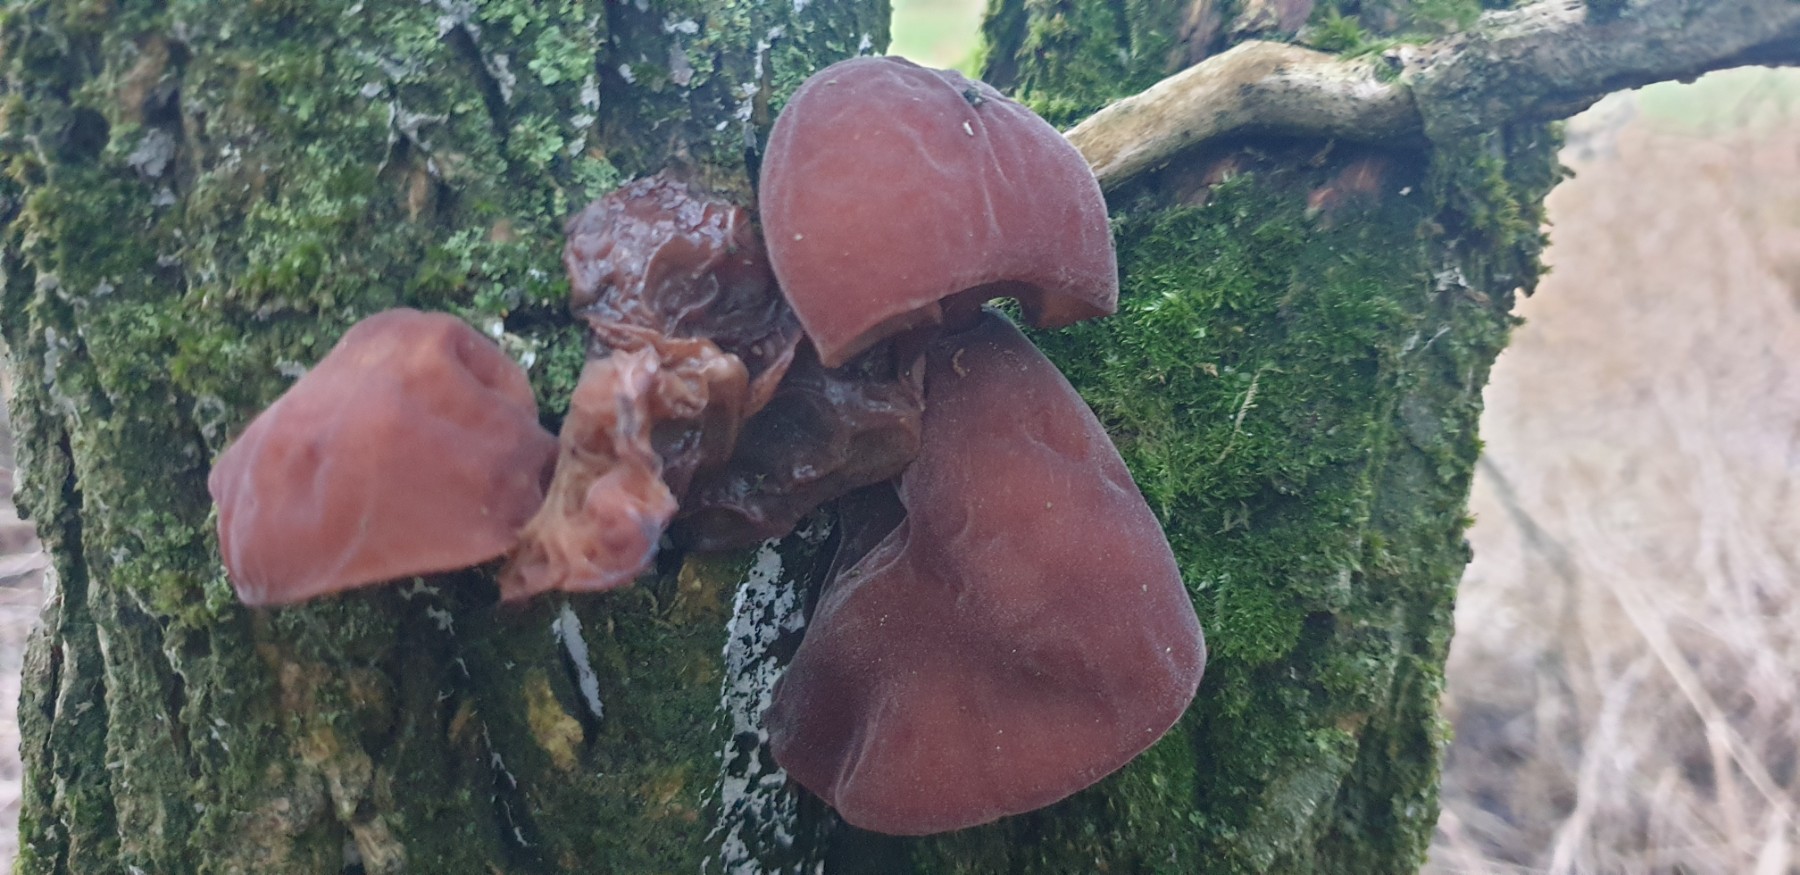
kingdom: Fungi
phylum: Basidiomycota
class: Agaricomycetes
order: Auriculariales
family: Auriculariaceae
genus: Auricularia
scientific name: Auricularia auricula-judae
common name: almindelig judasøre
